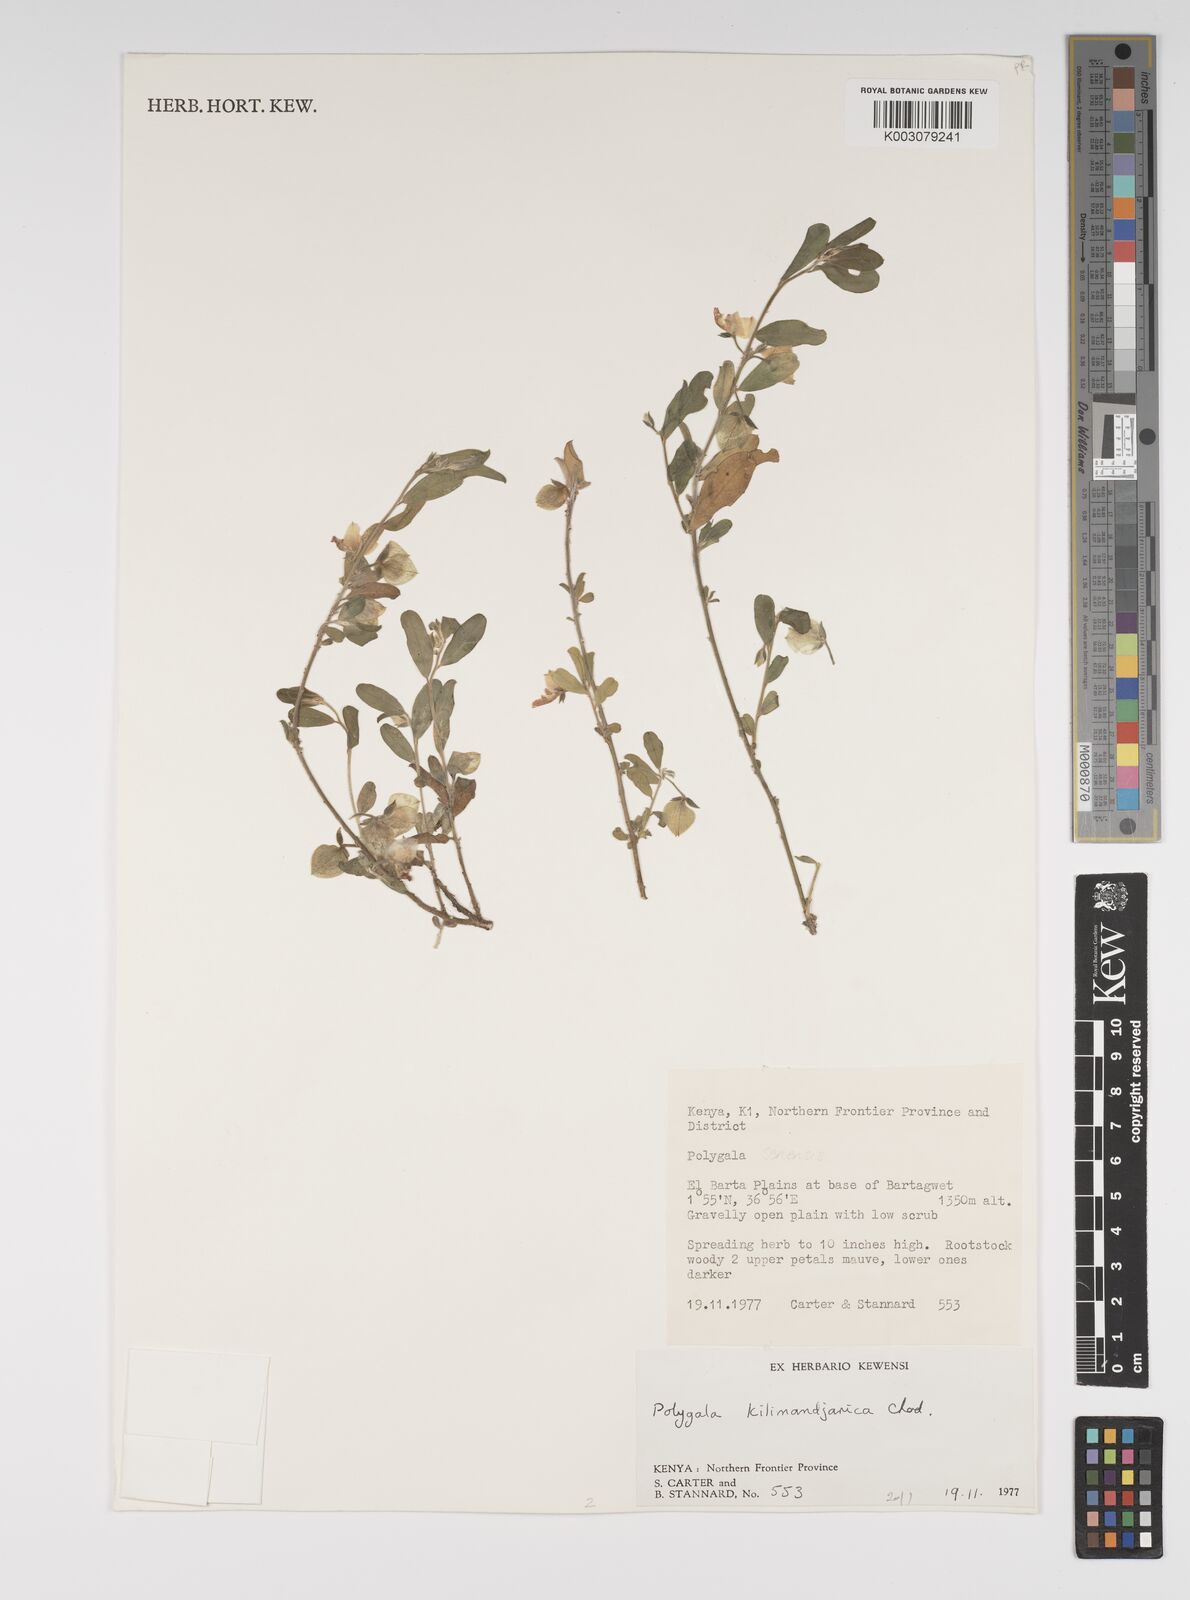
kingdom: Plantae
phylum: Tracheophyta
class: Magnoliopsida
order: Fabales
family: Polygalaceae
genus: Polygala
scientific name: Polygala kilimandjarica
